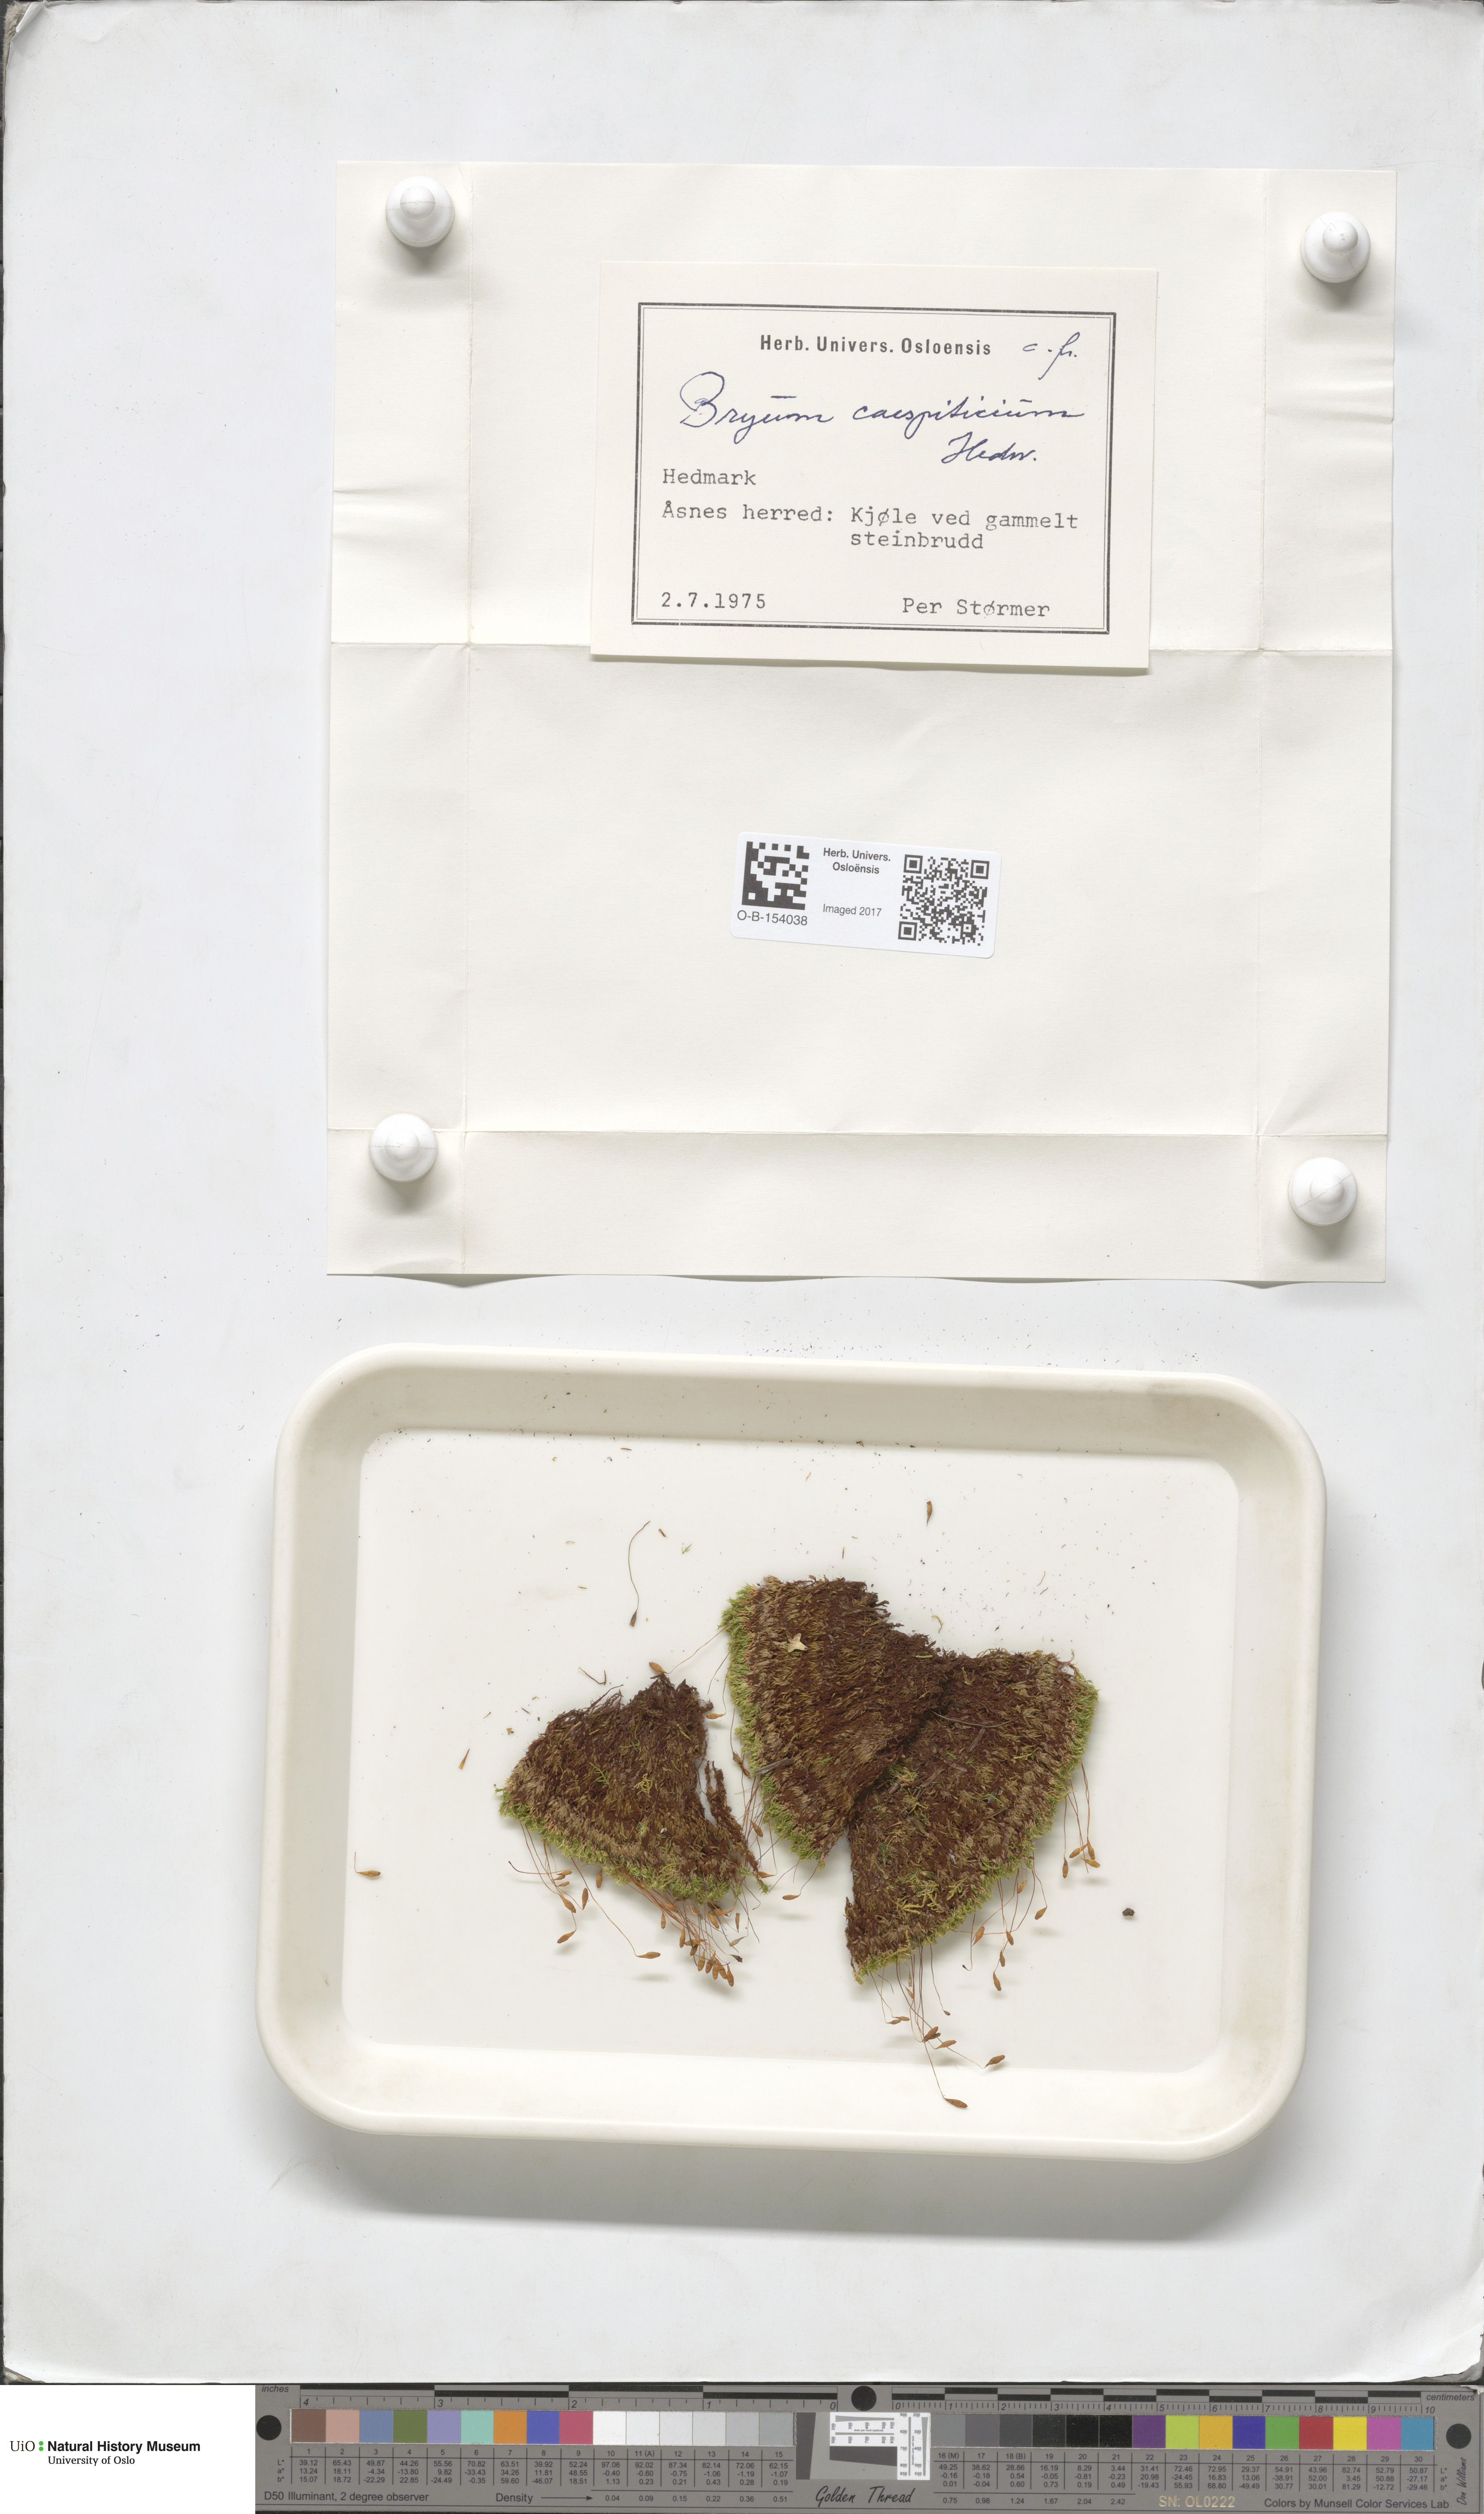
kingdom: Plantae
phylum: Bryophyta
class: Bryopsida
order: Bryales
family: Bryaceae
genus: Gemmabryum
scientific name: Gemmabryum caespiticium
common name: Handbell moss
